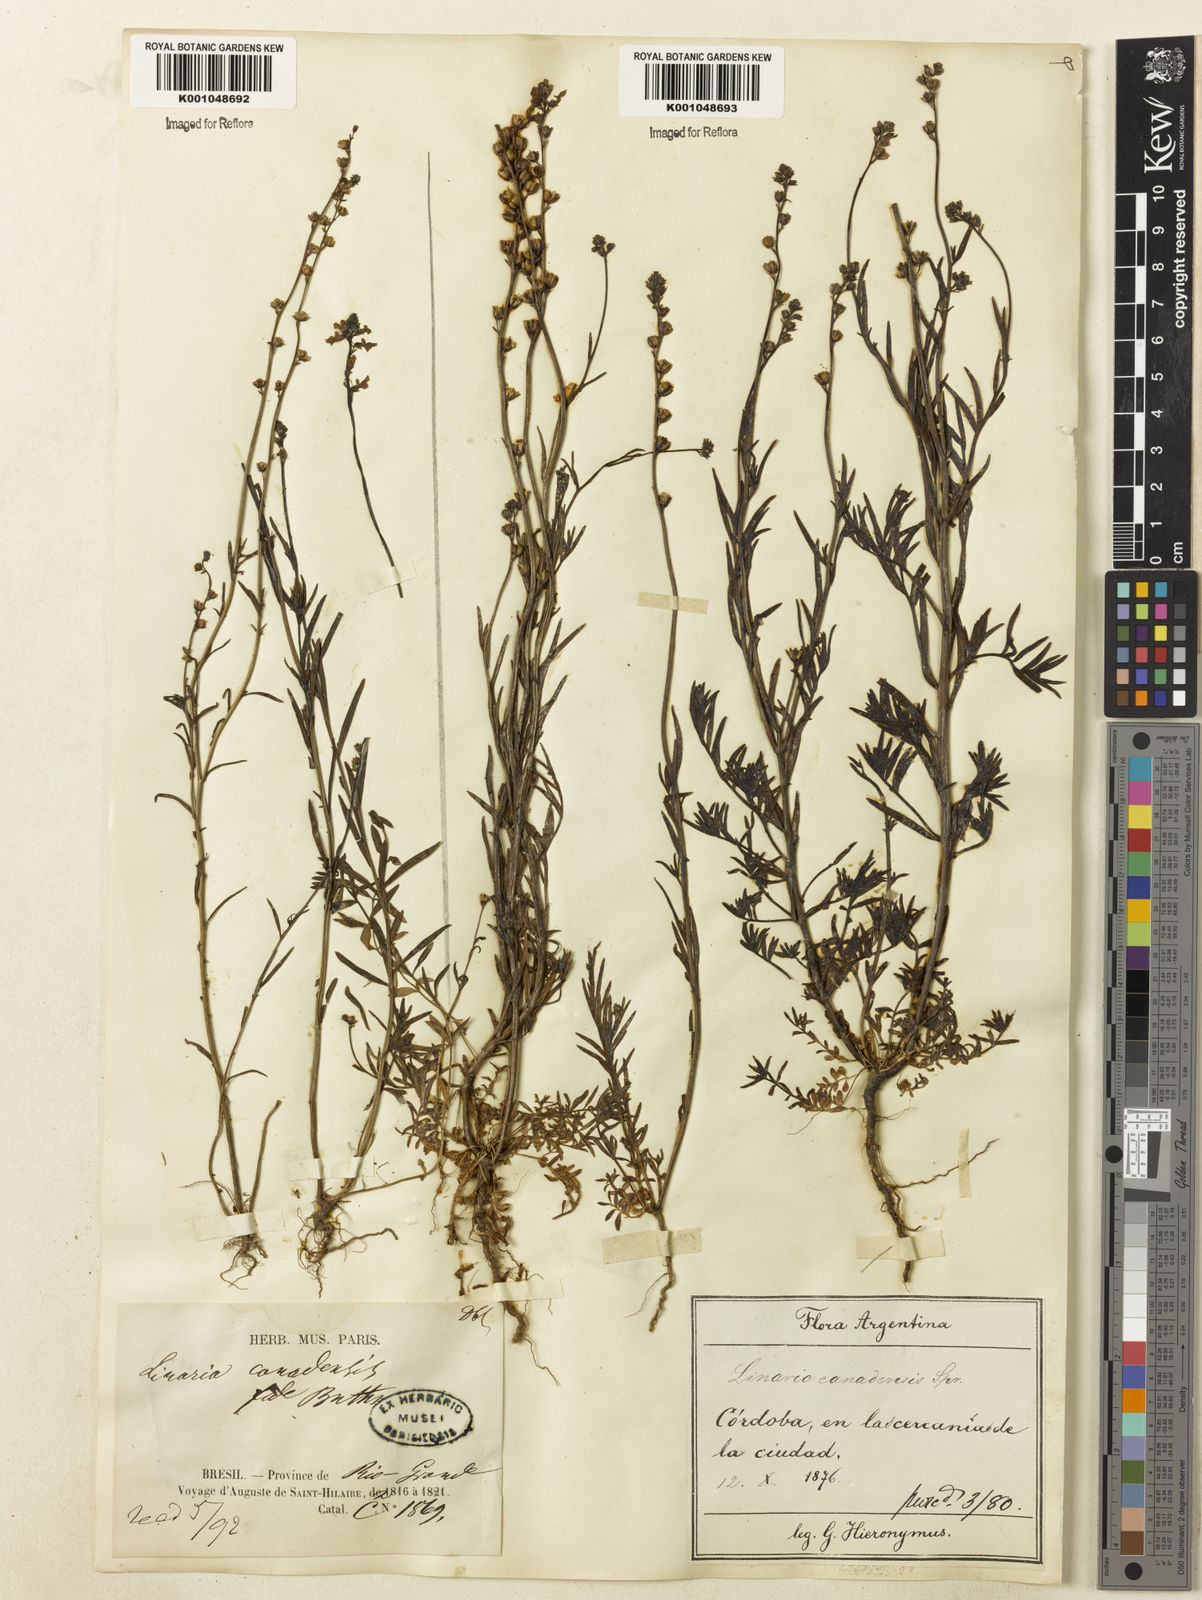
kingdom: Plantae
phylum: Tracheophyta
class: Magnoliopsida
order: Lamiales
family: Plantaginaceae
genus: Nuttallanthus
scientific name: Nuttallanthus canadensis
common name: Blue toadflax
